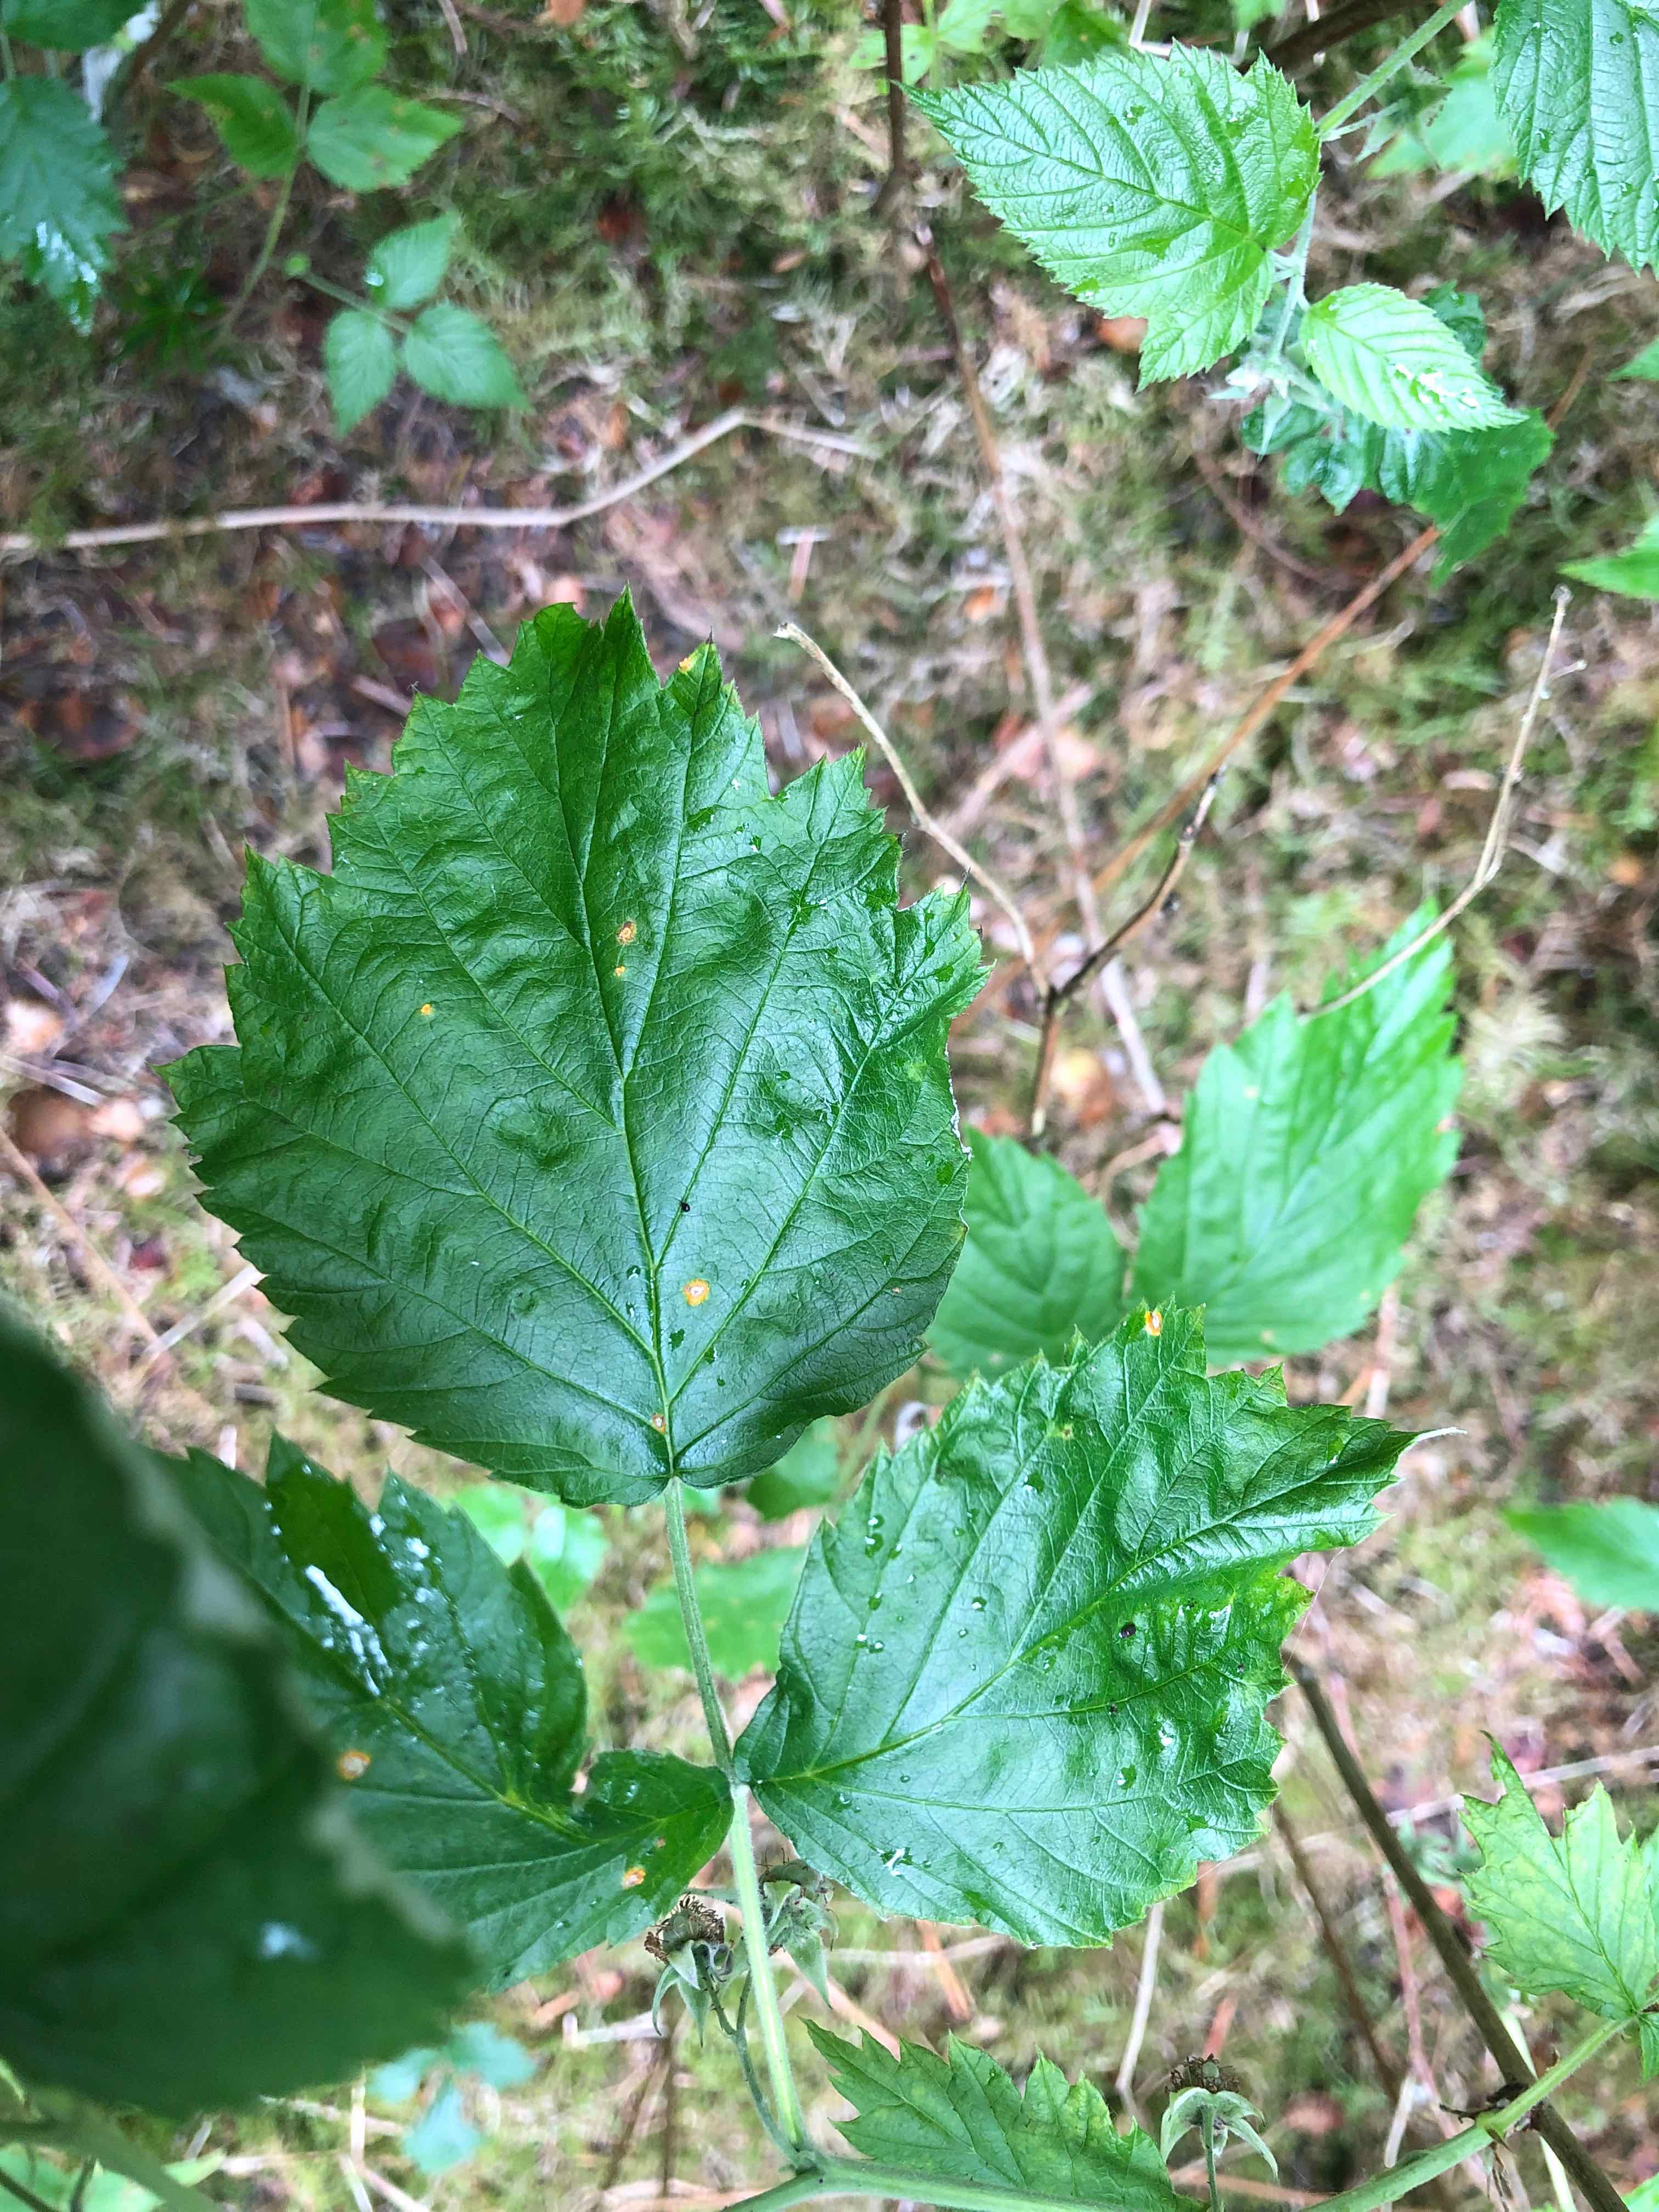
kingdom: Fungi
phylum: Basidiomycota
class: Pucciniomycetes
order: Pucciniales
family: Phragmidiaceae
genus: Phragmidium
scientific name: Phragmidium rubi-idaei
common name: hindbær-flercellerust
